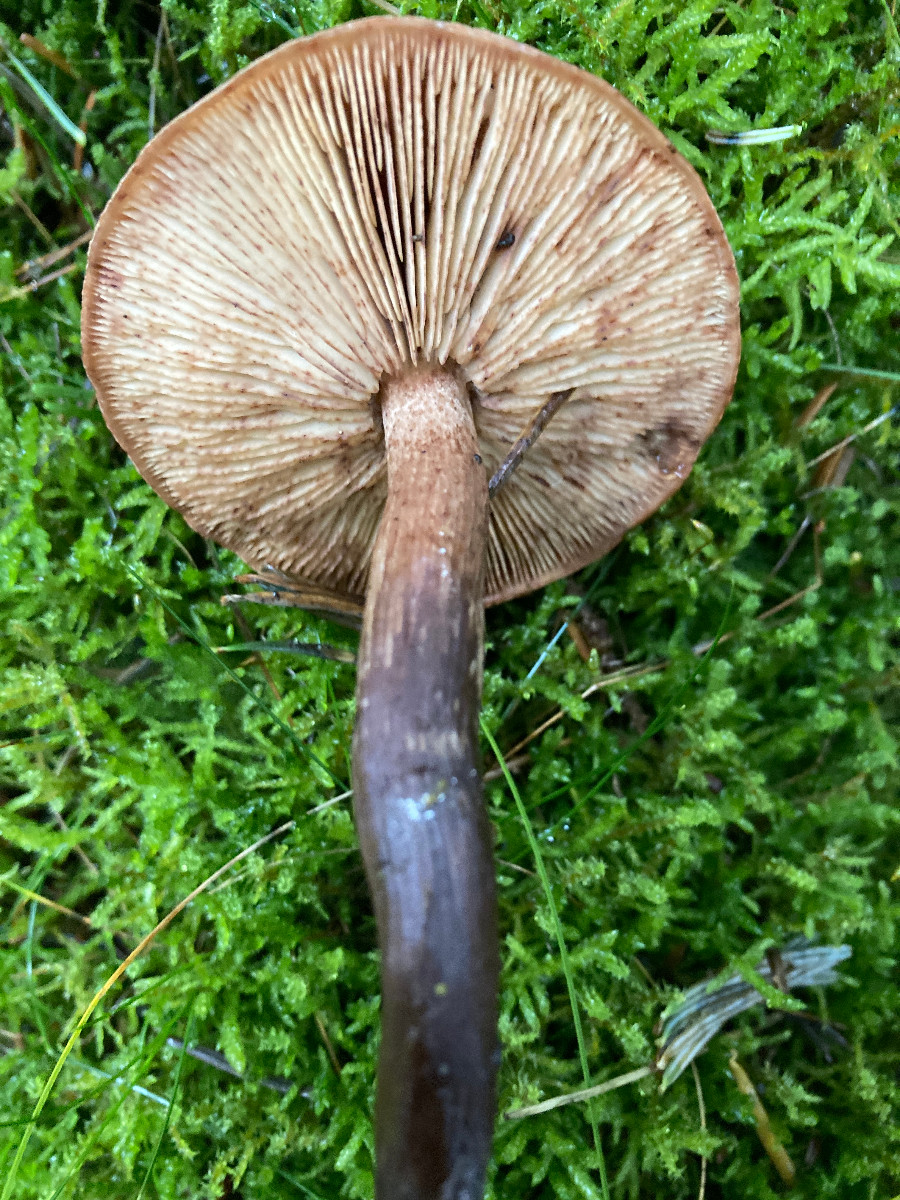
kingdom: Fungi
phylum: Basidiomycota
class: Agaricomycetes
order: Agaricales
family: Tricholomataceae
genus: Tricholoma
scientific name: Tricholoma fulvum
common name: birke-ridderhat
